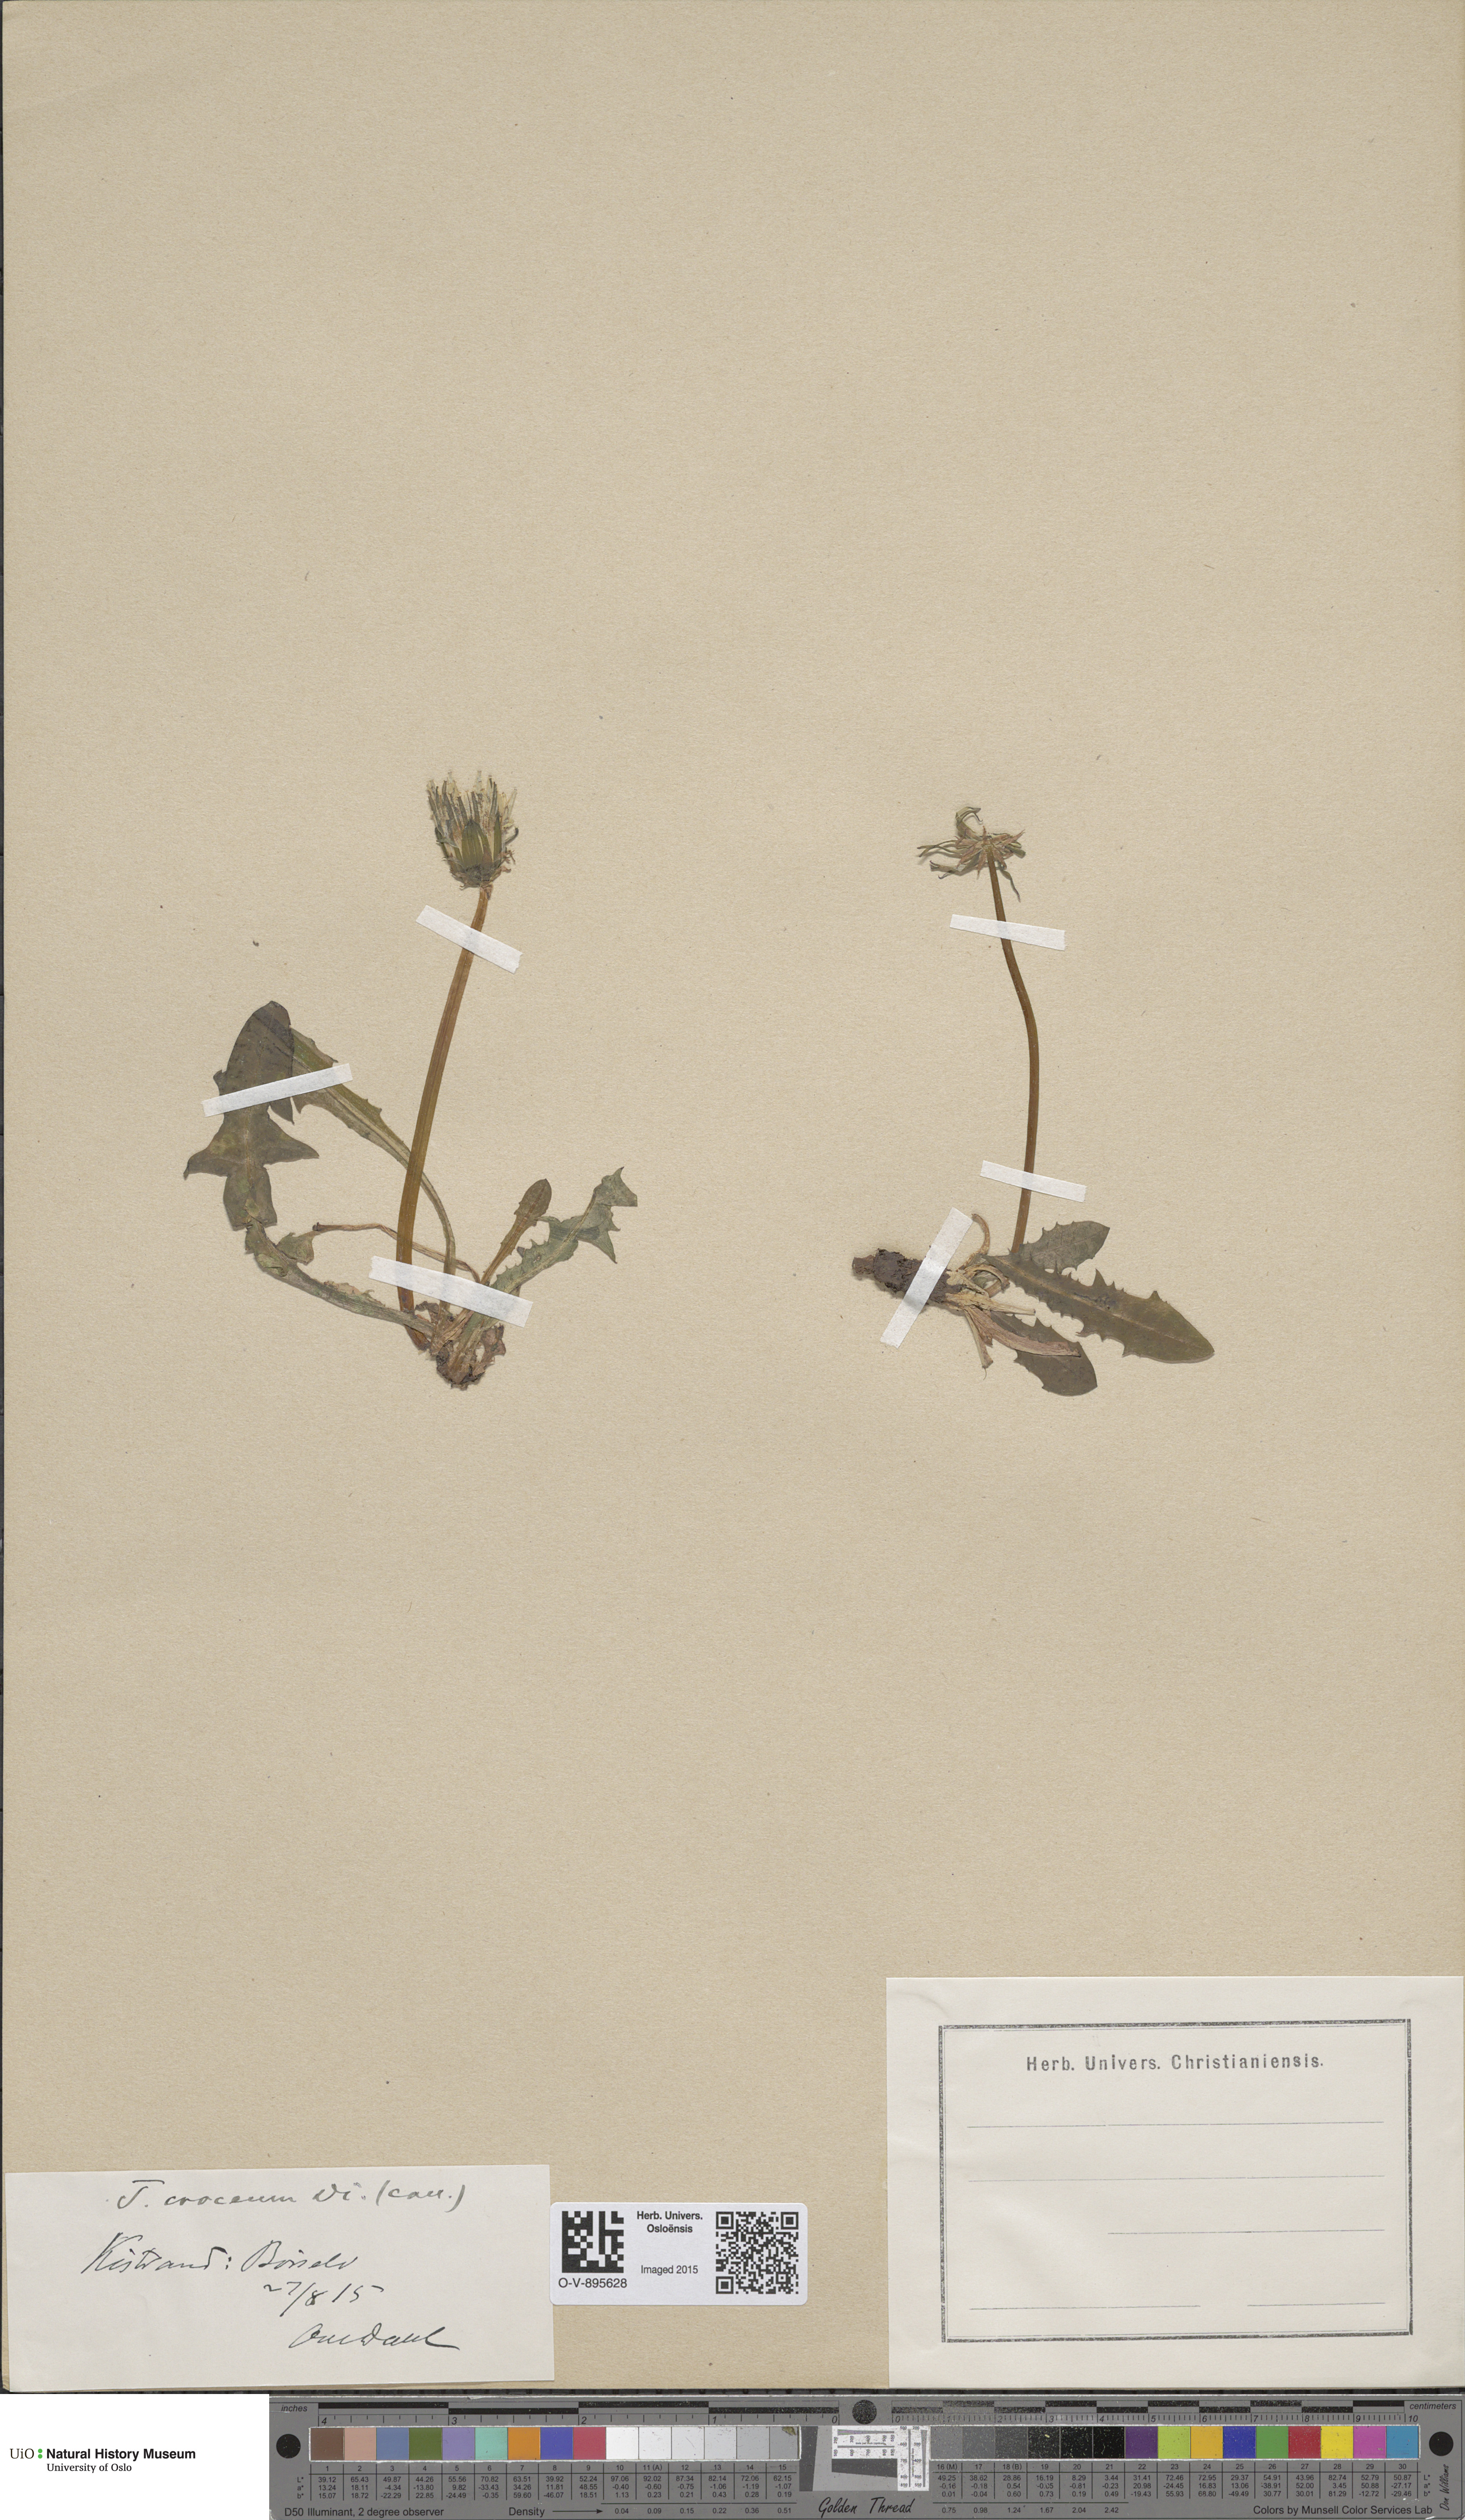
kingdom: Plantae
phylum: Tracheophyta
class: Magnoliopsida
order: Asterales
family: Asteraceae
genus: Taraxacum
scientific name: Taraxacum croceum
